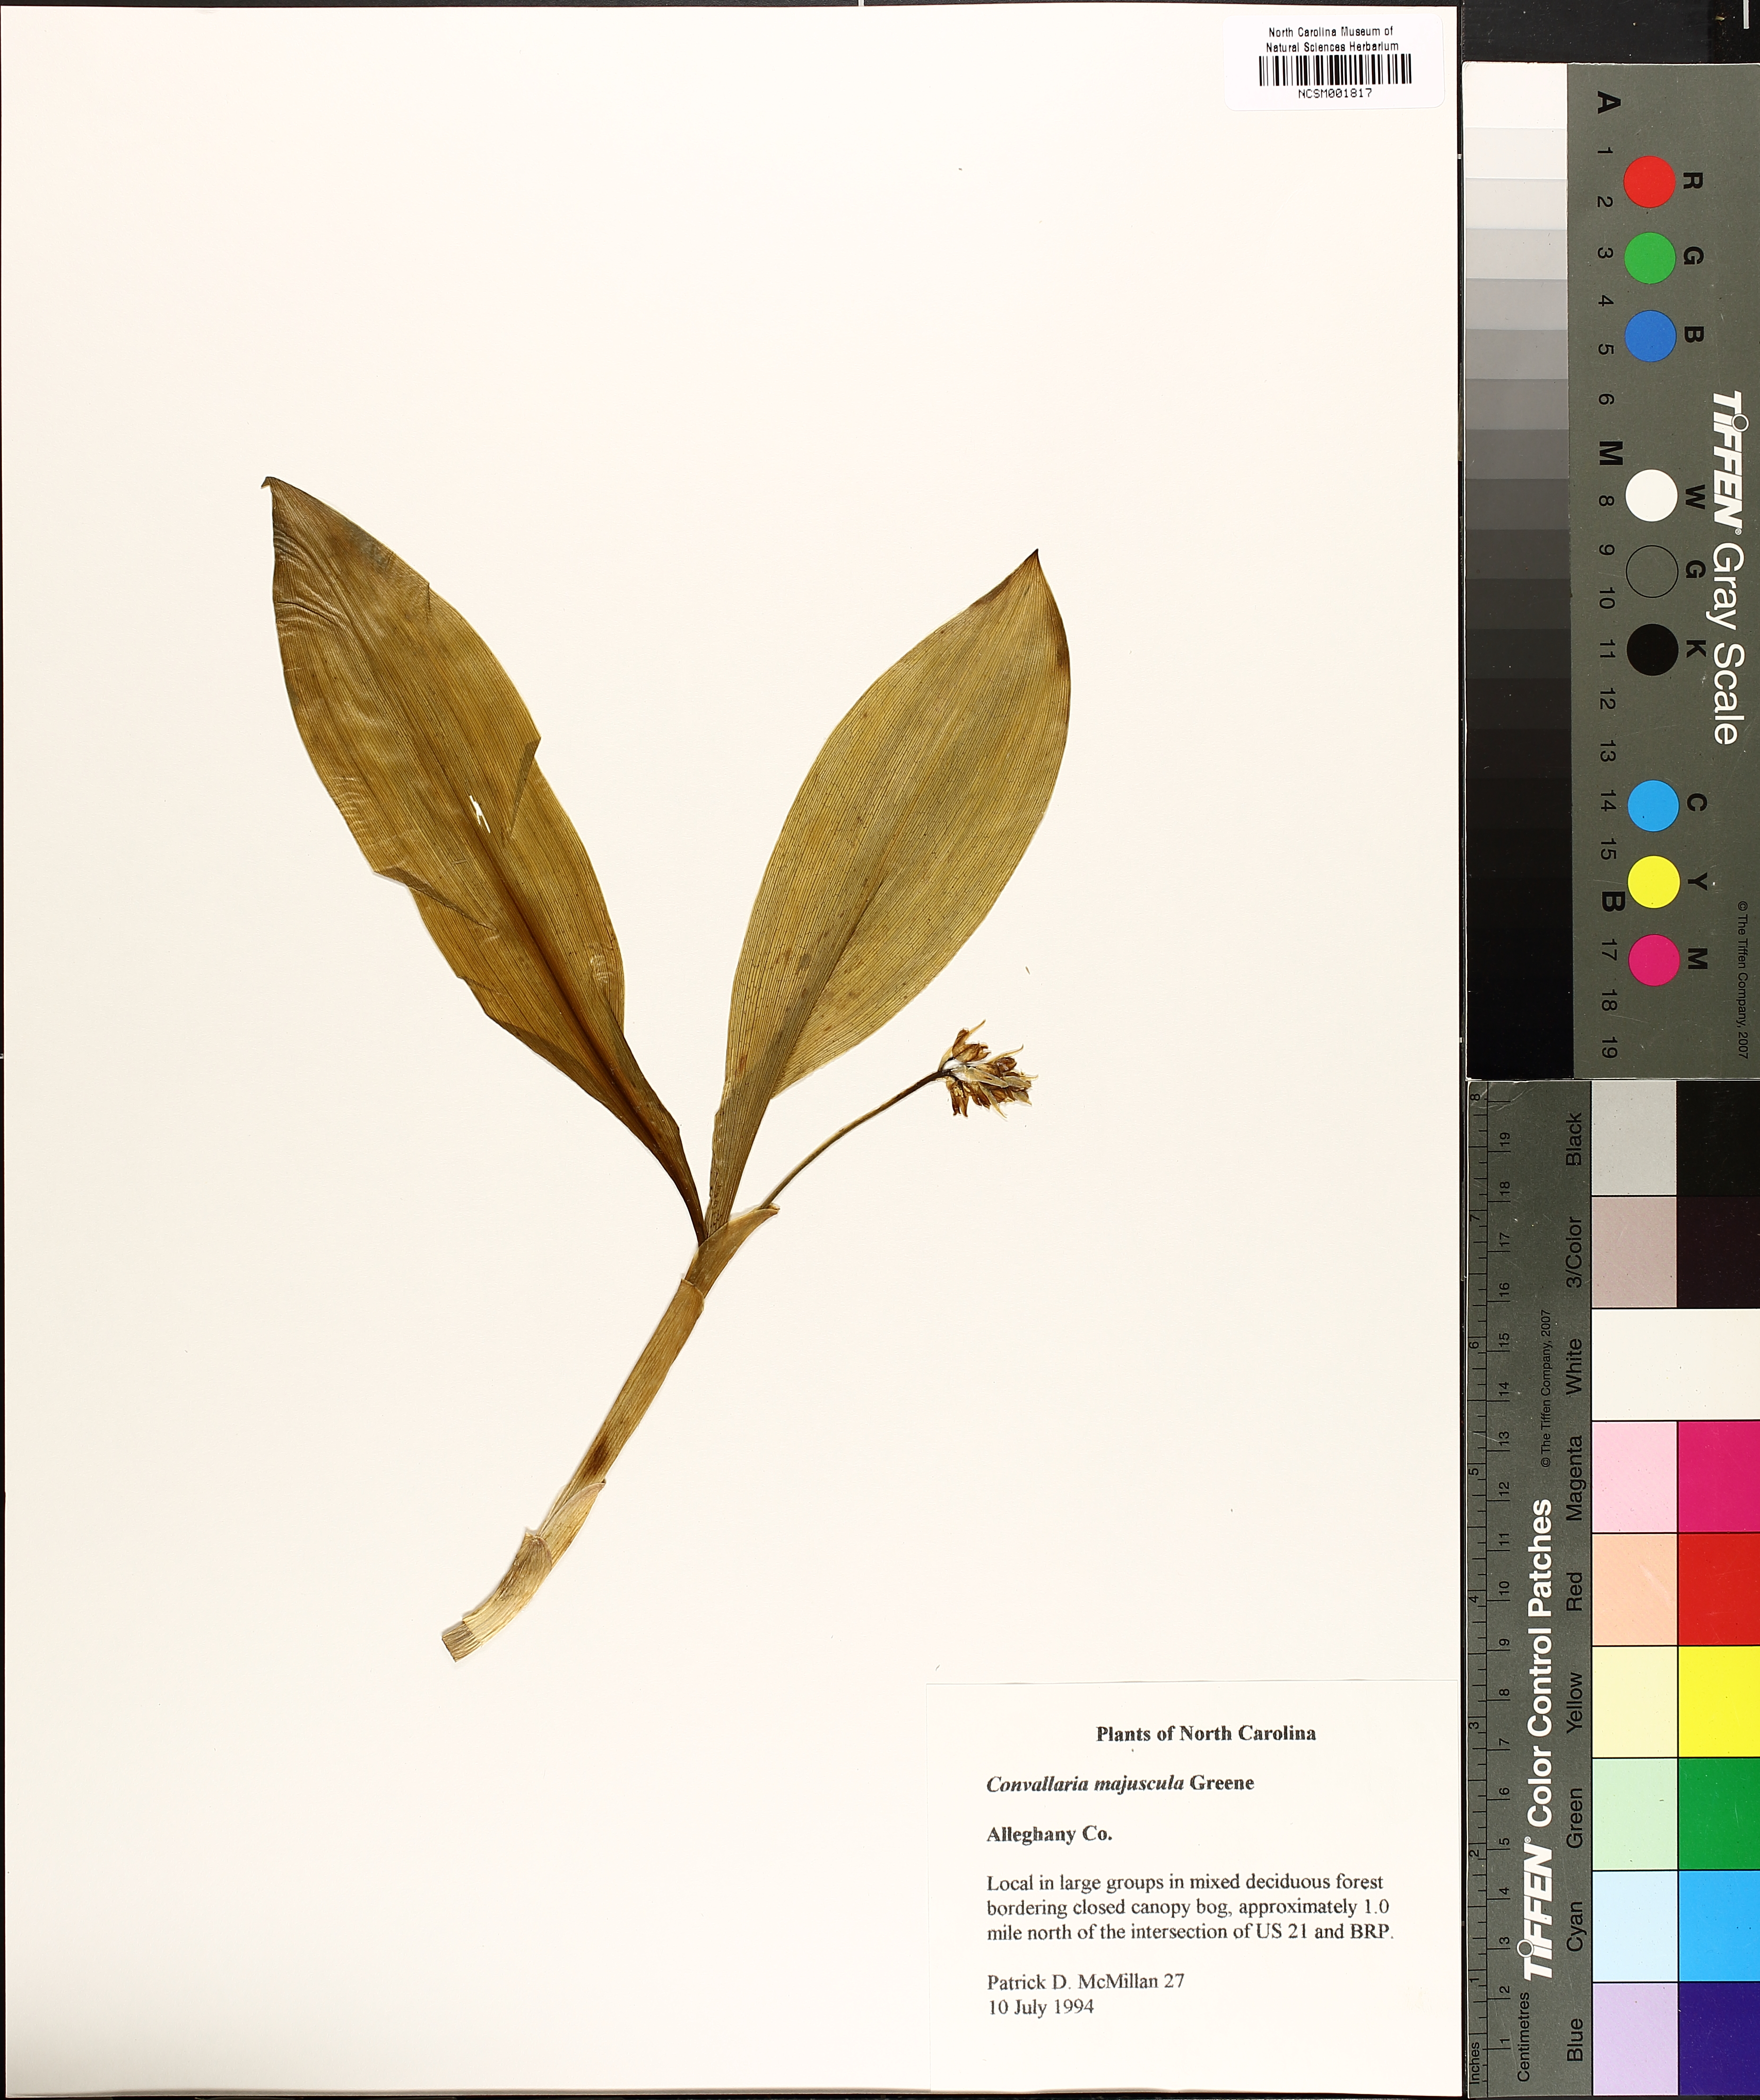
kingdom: Plantae
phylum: Tracheophyta
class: Liliopsida
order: Asparagales
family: Asparagaceae
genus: Convallaria
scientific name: Convallaria pseudomajalis
